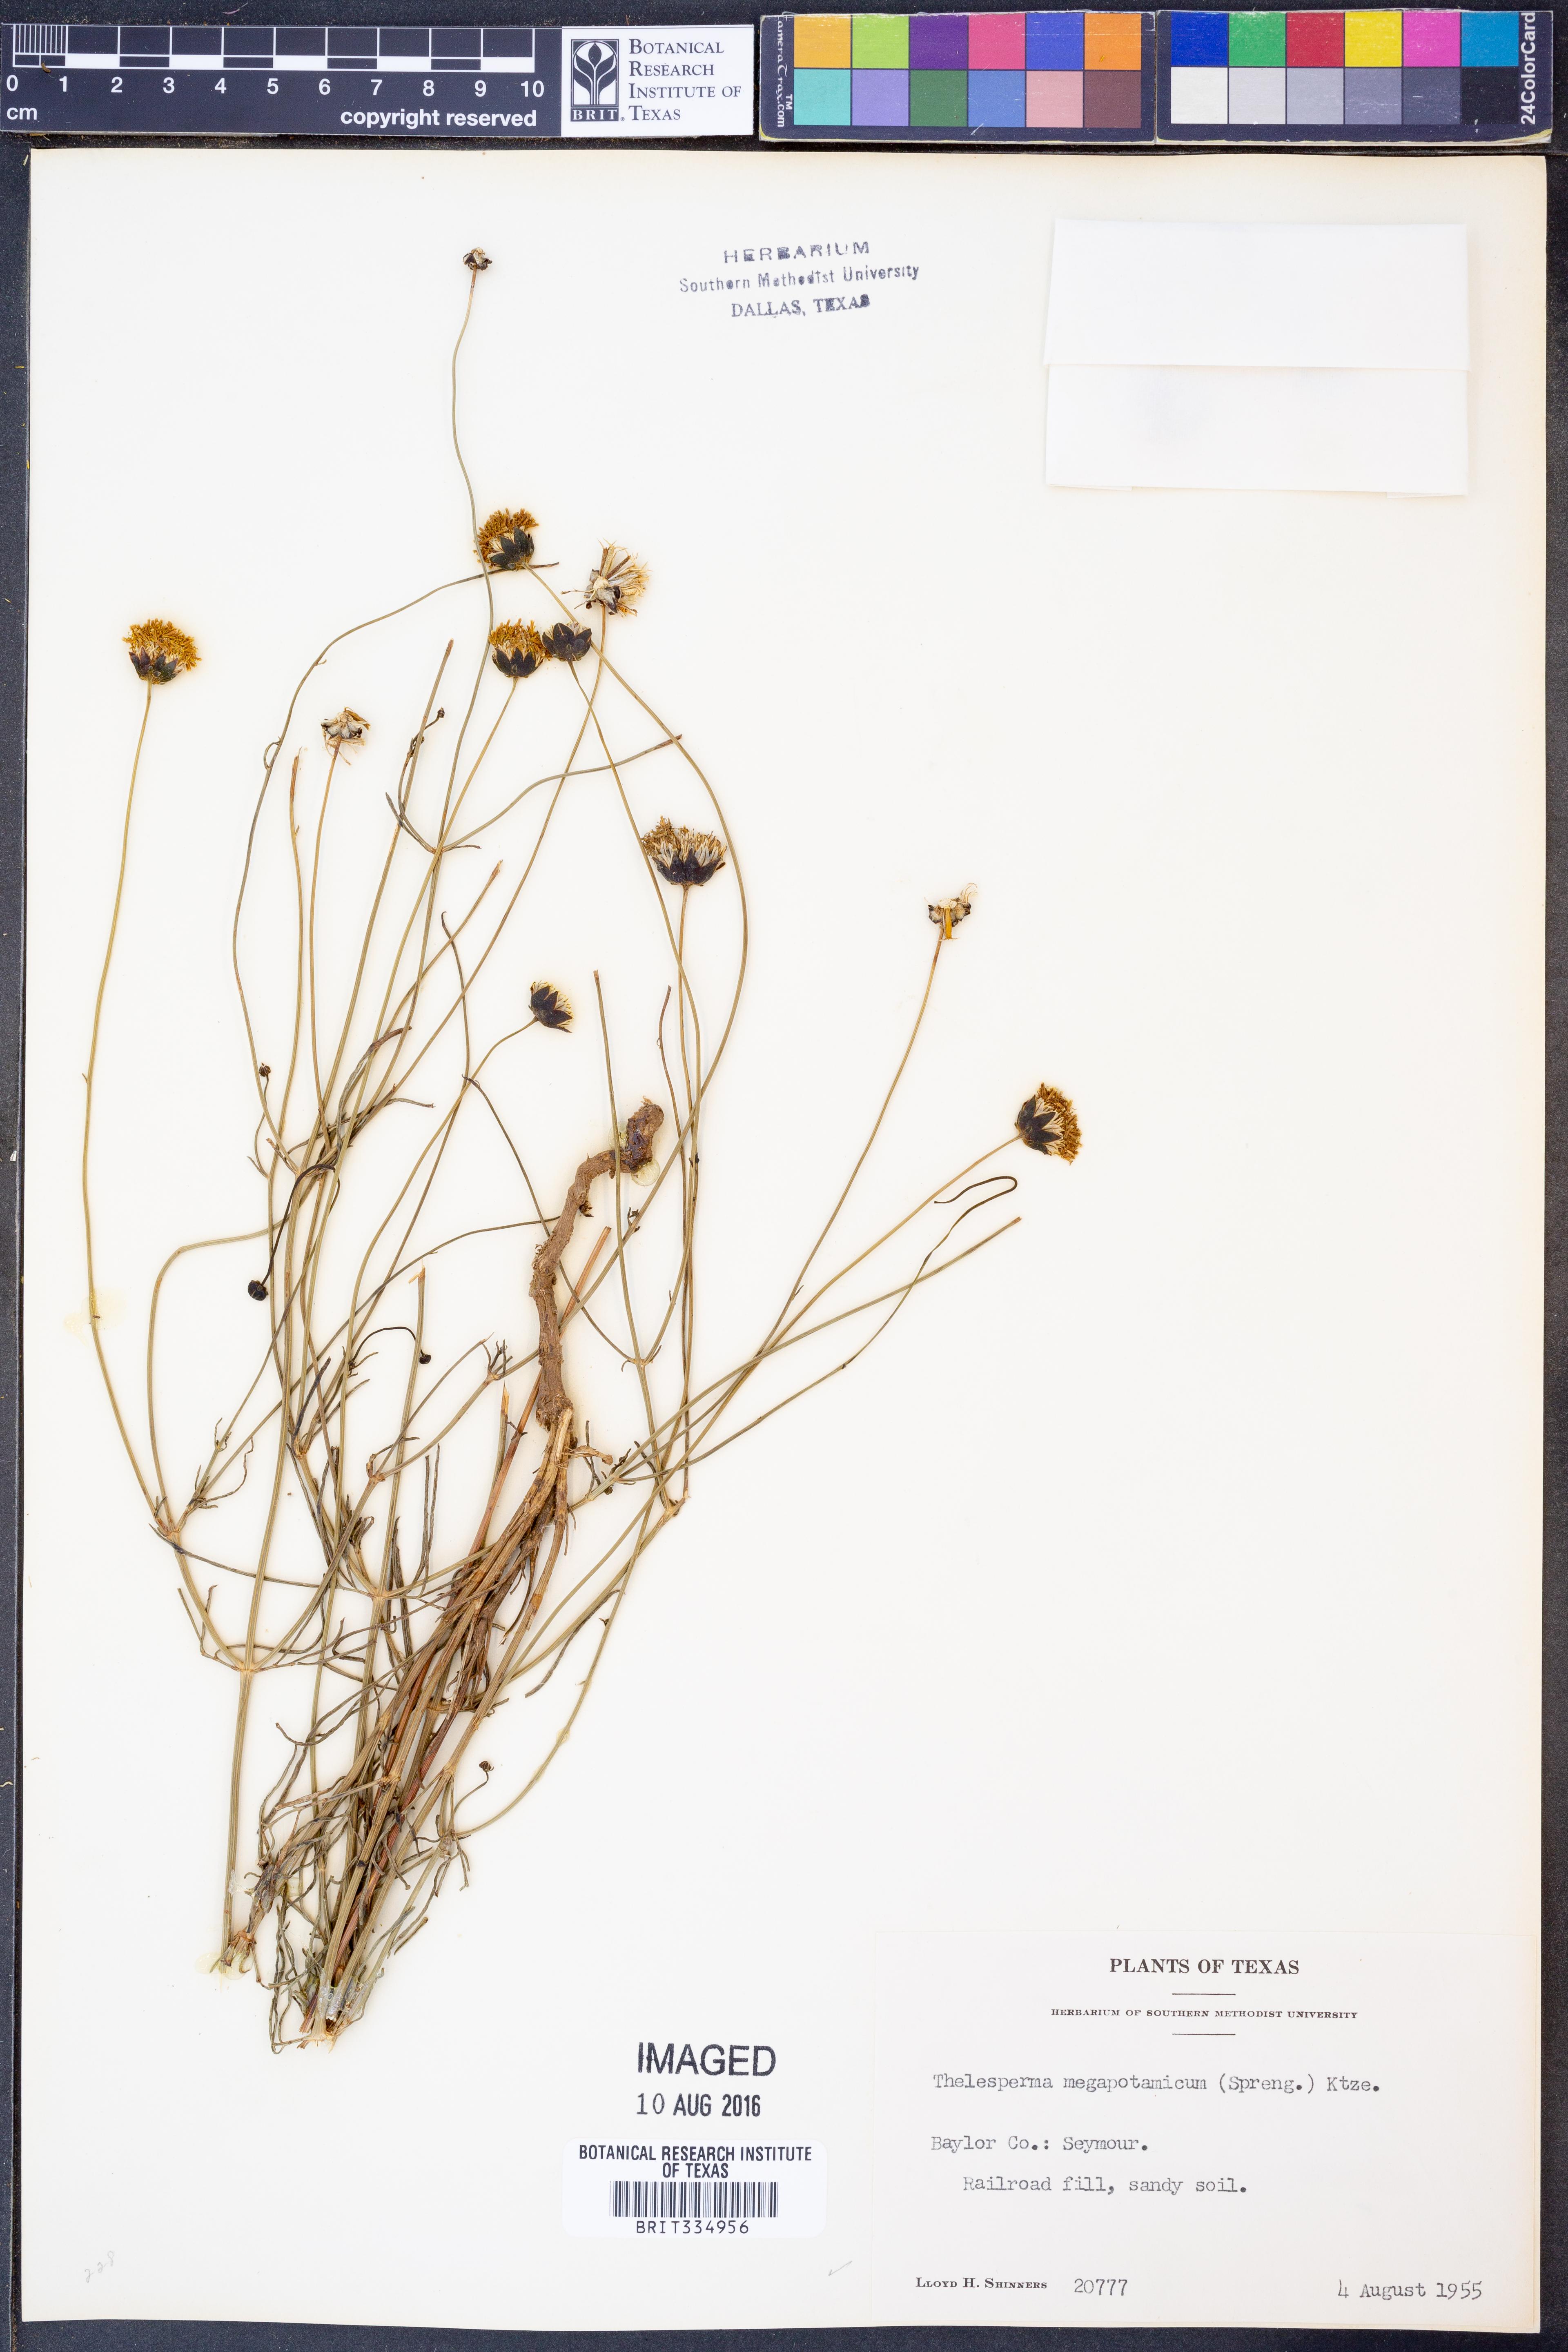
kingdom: Plantae
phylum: Tracheophyta
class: Magnoliopsida
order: Asterales
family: Asteraceae
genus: Thelesperma
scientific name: Thelesperma megapotamicum
